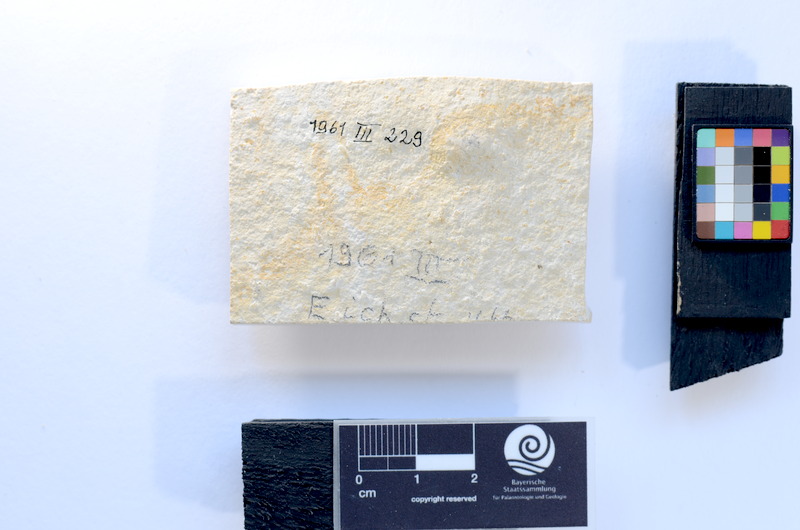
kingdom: Animalia
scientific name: Animalia
